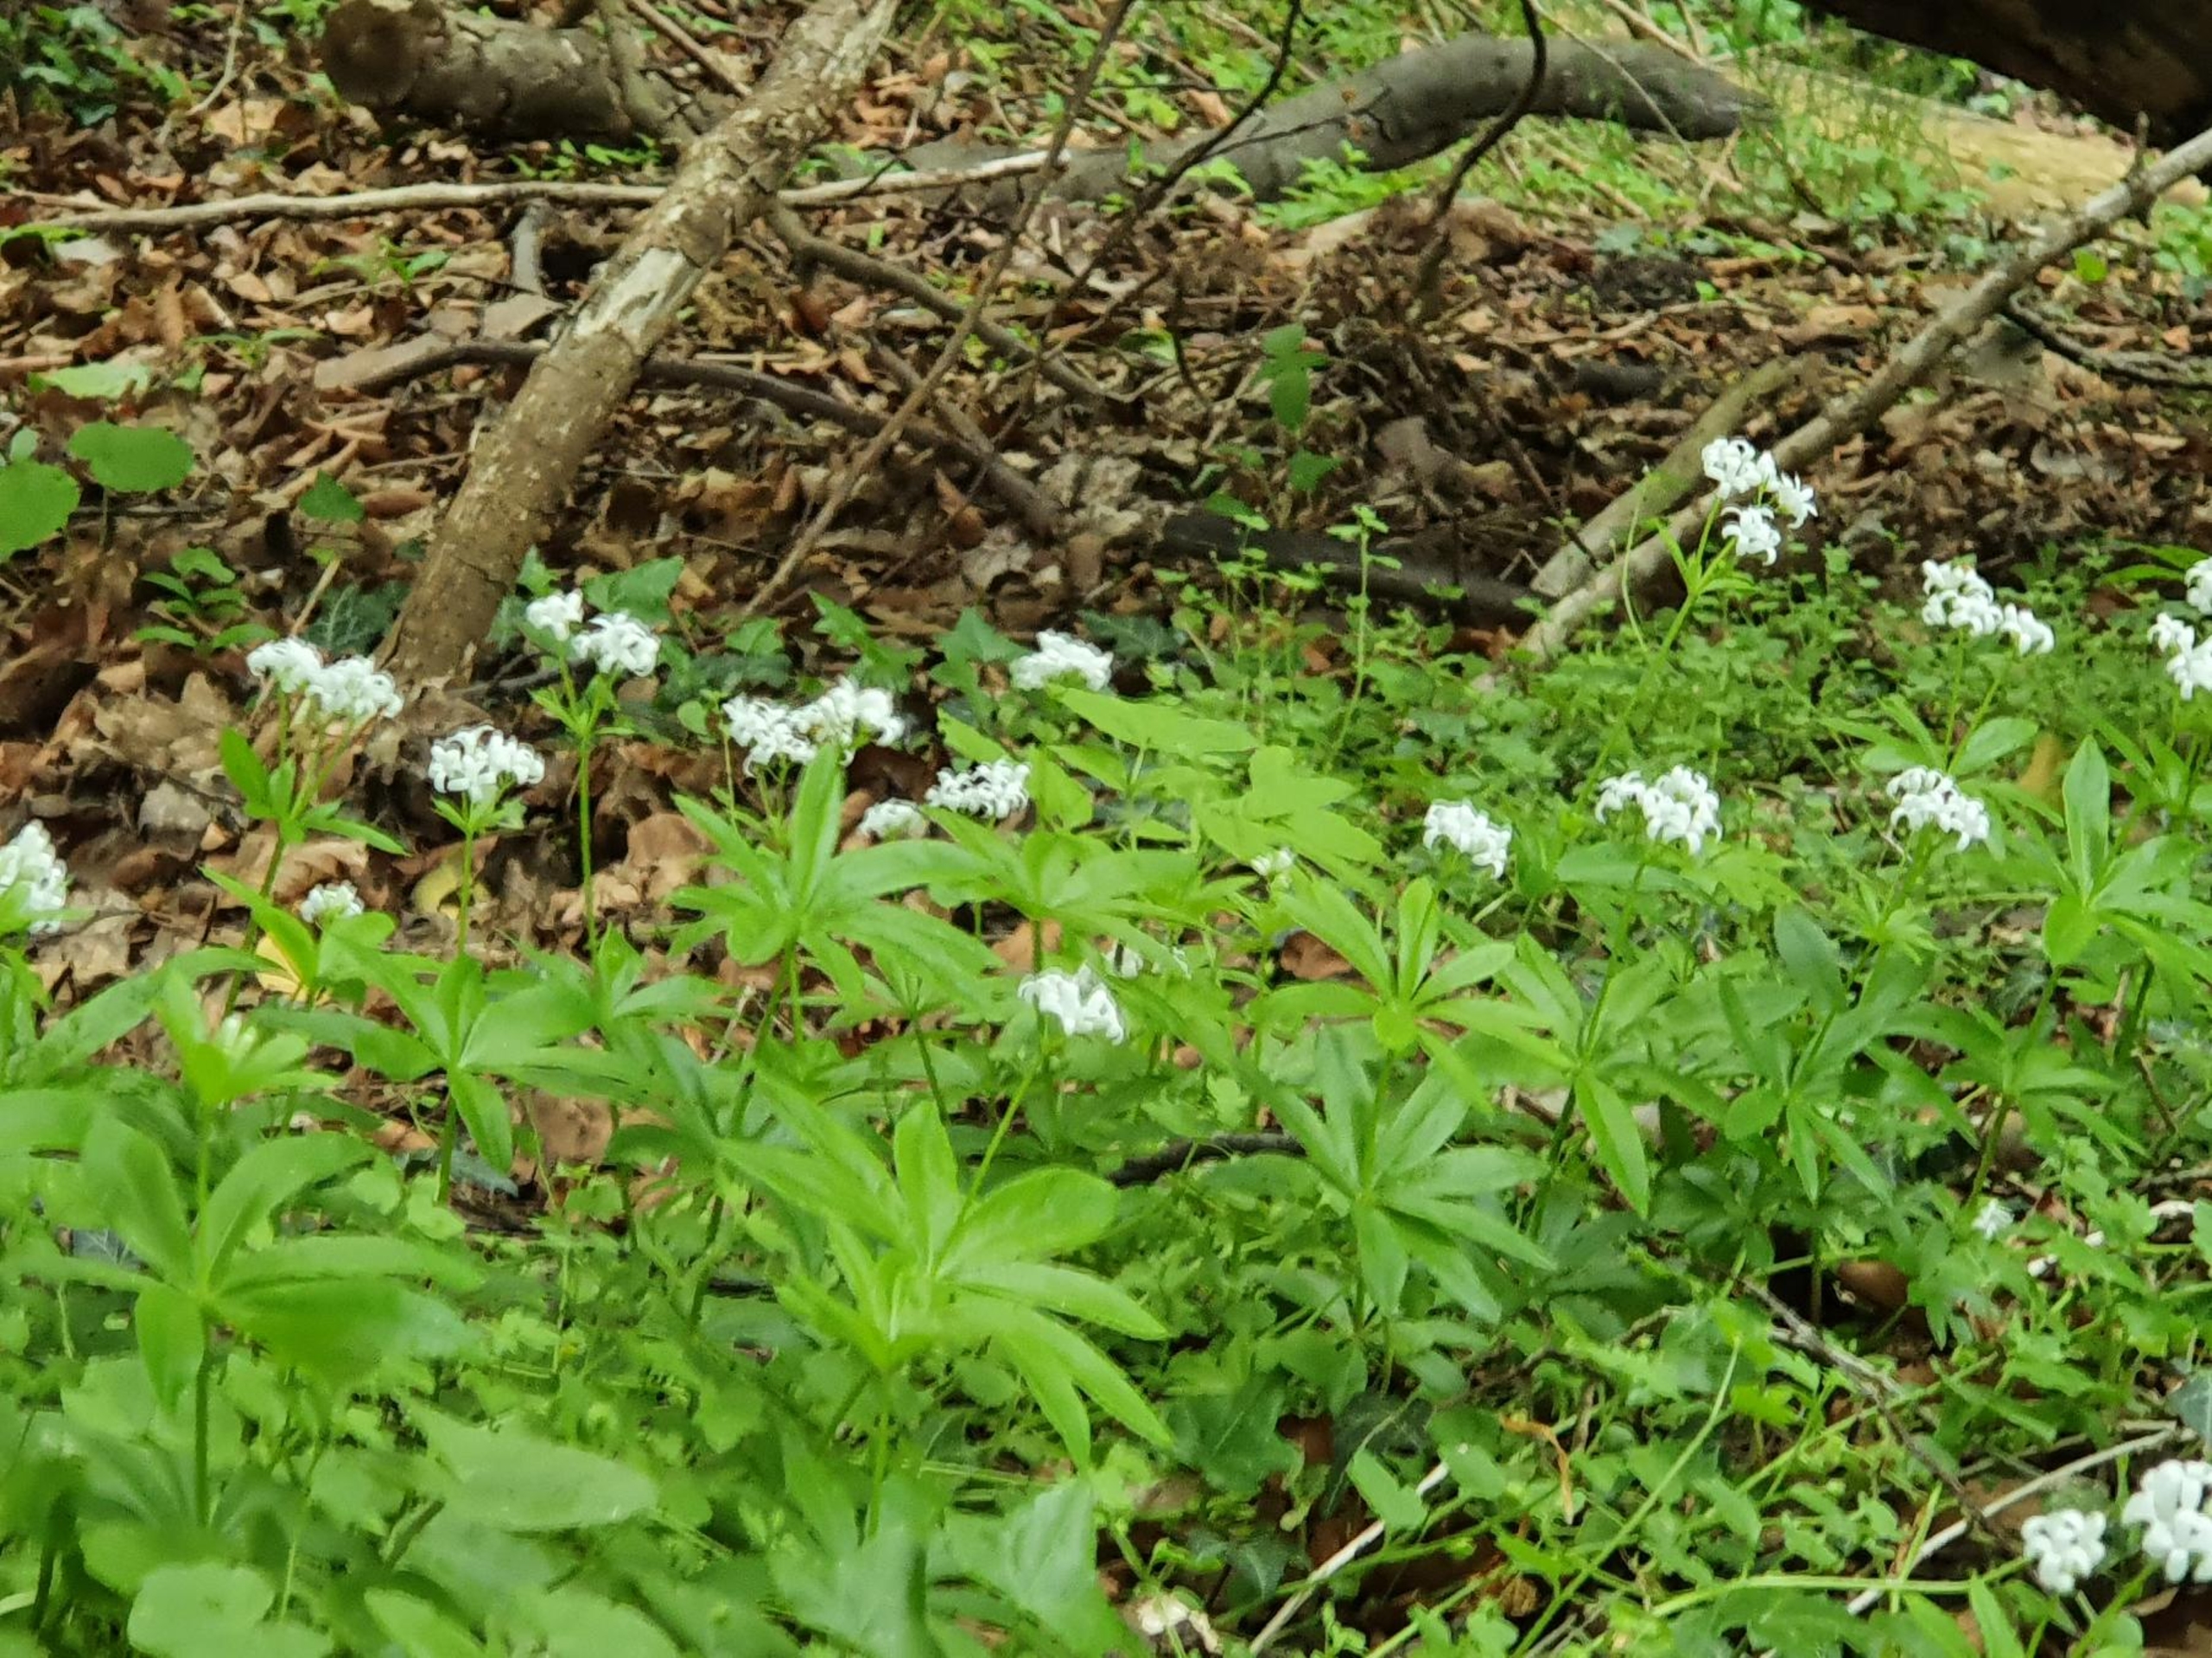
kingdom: Plantae
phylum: Tracheophyta
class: Magnoliopsida
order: Gentianales
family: Rubiaceae
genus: Galium
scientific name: Galium odoratum
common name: Skovmærke
